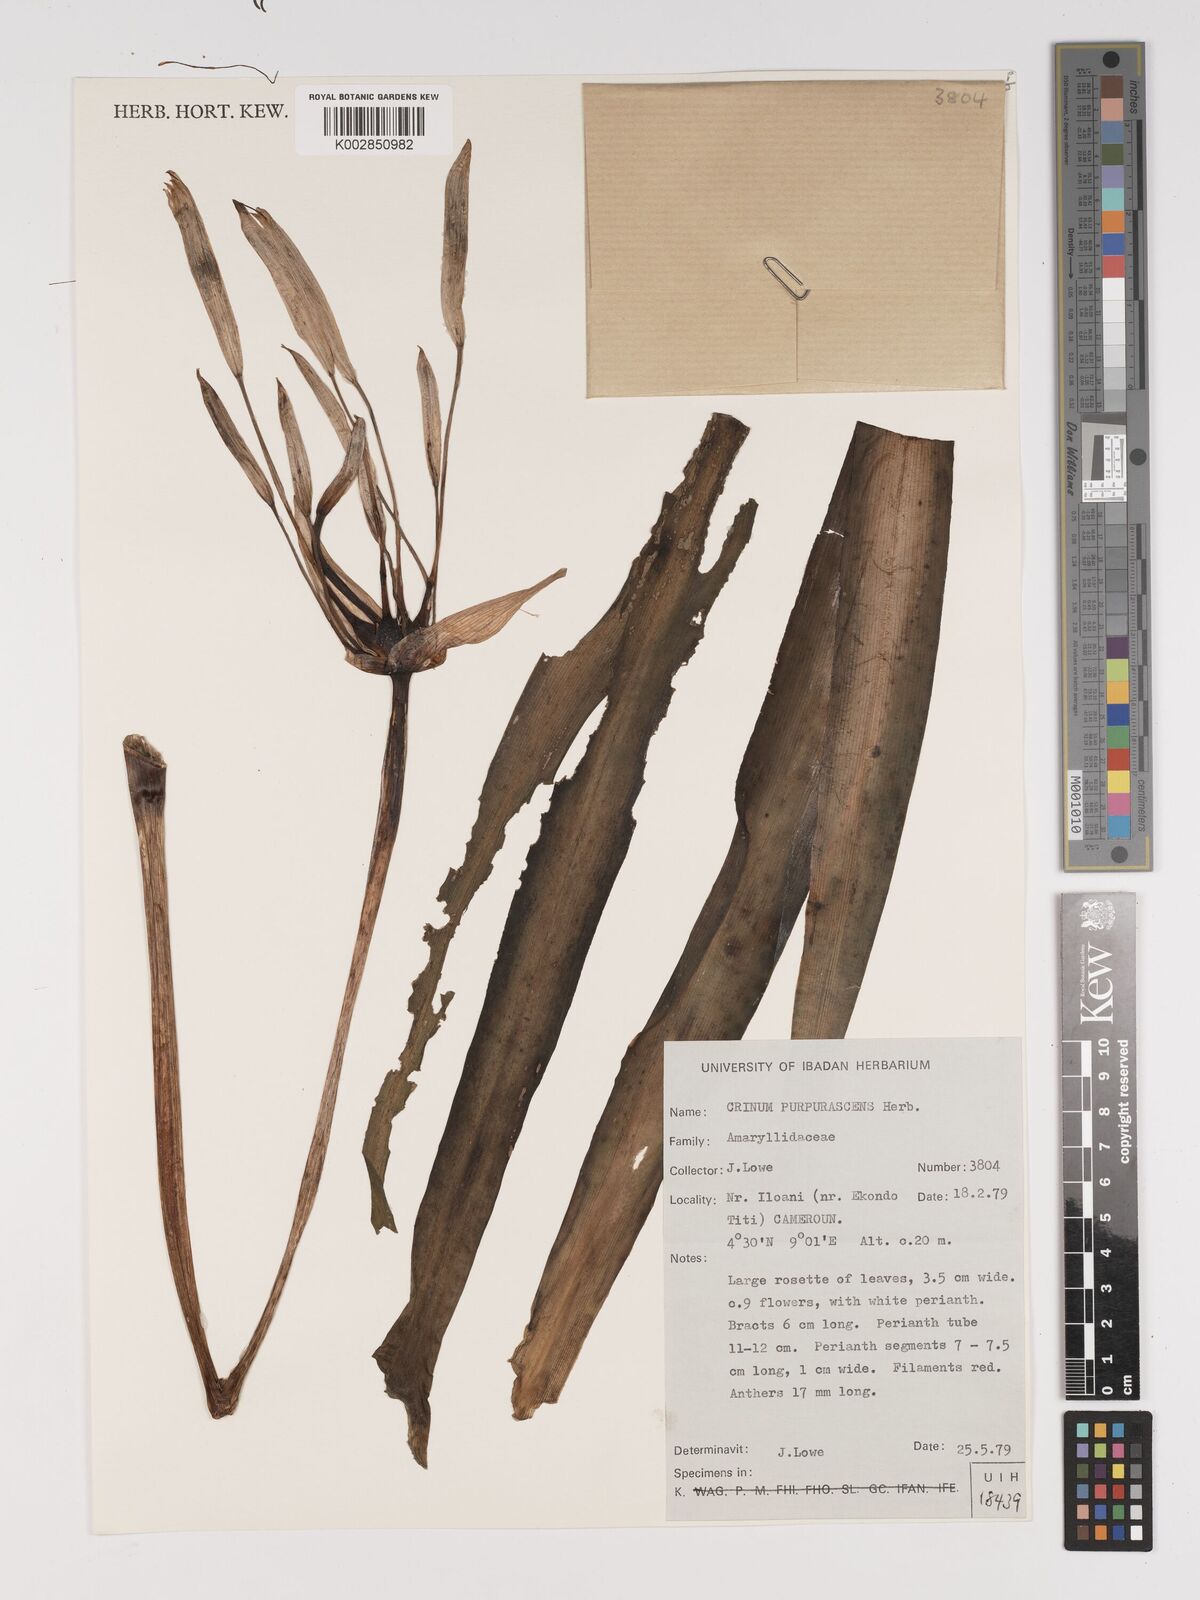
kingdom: Plantae
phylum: Tracheophyta
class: Liliopsida
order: Asparagales
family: Amaryllidaceae
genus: Crinum
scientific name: Crinum purpurascens
